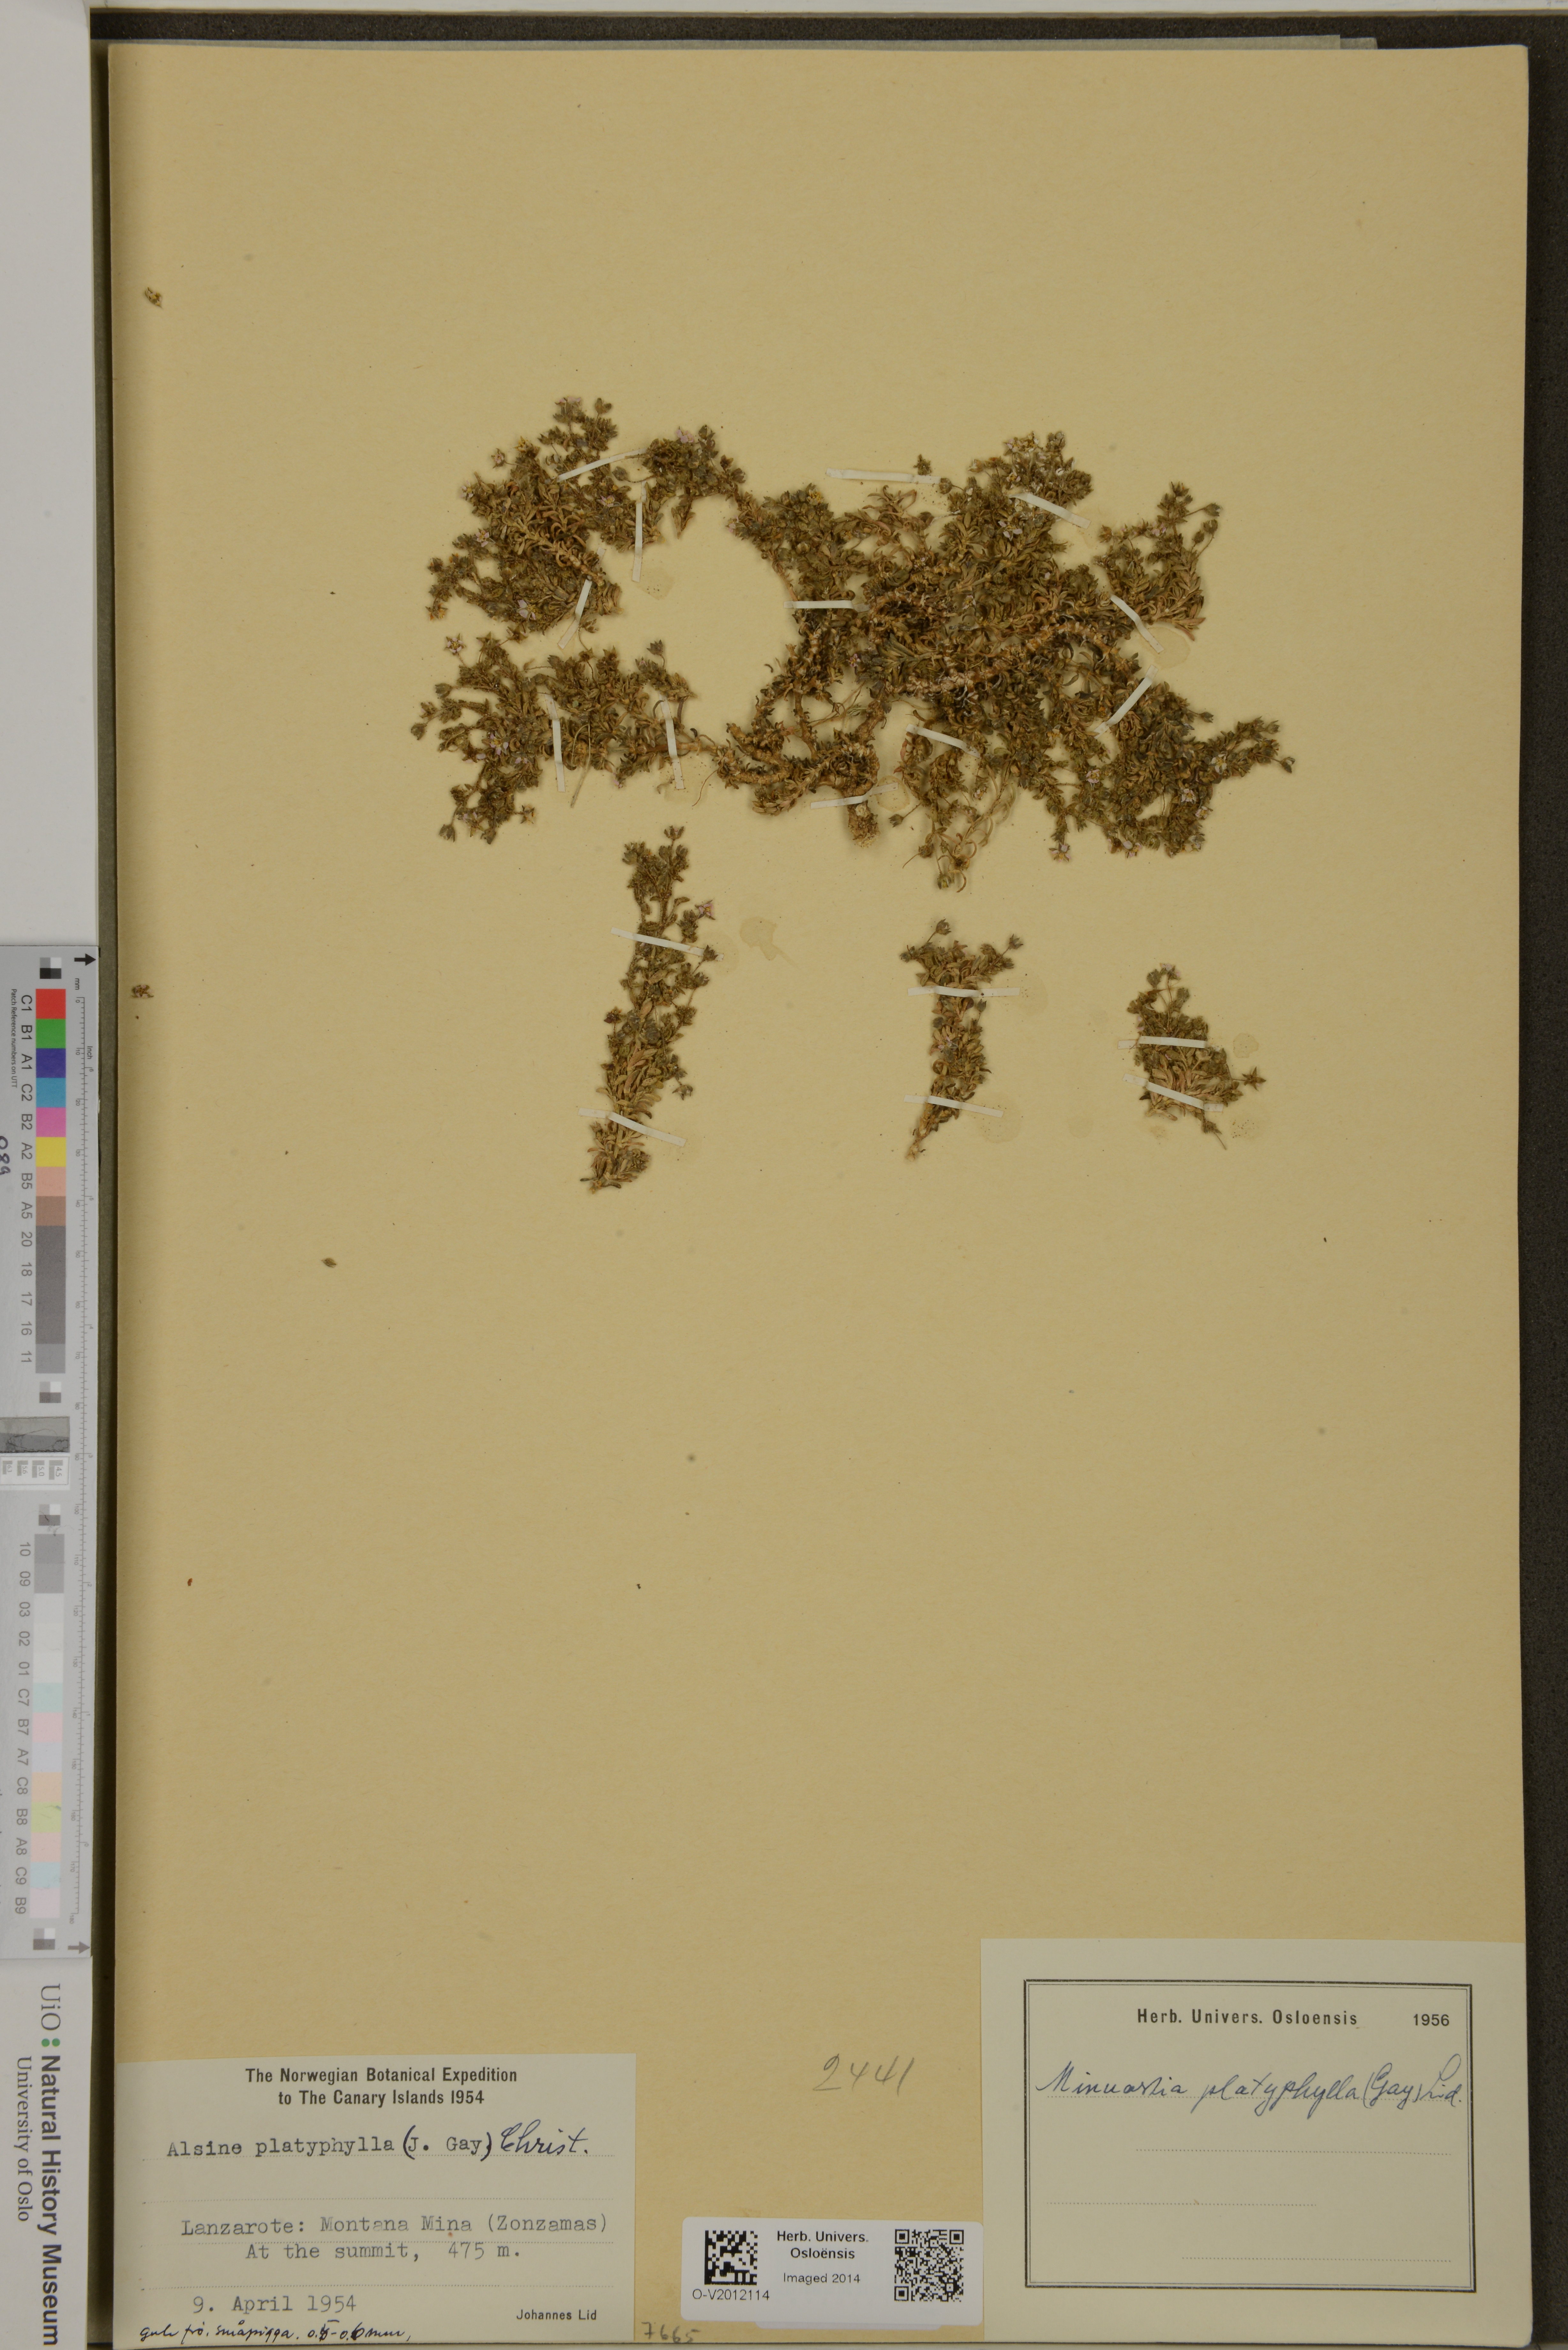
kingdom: Plantae
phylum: Tracheophyta
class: Magnoliopsida
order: Caryophyllales
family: Caryophyllaceae
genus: Rhodalsine
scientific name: Rhodalsine geniculata
